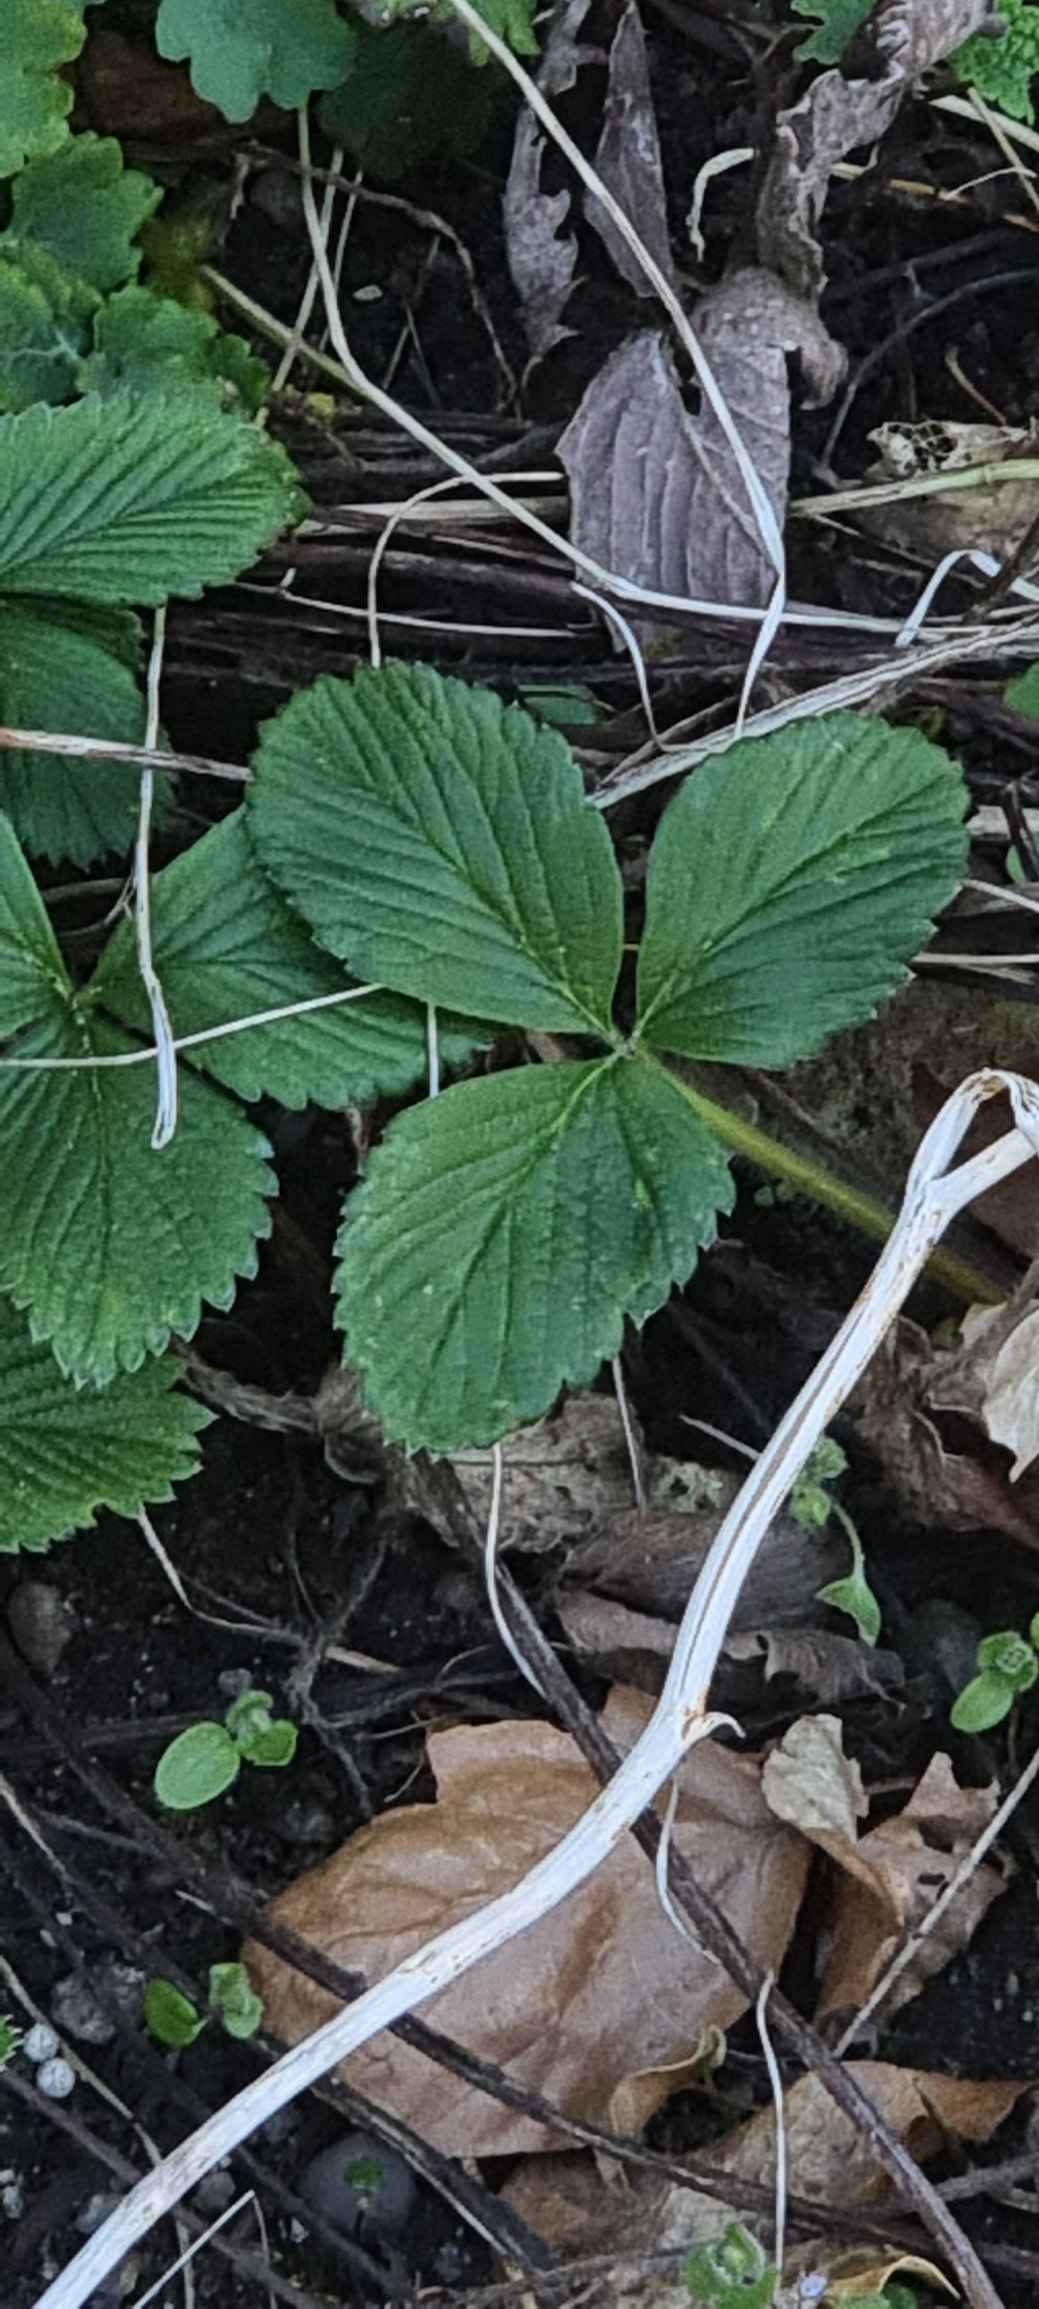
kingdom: Plantae
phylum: Tracheophyta
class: Magnoliopsida
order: Rosales
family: Rosaceae
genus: Fragaria
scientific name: Fragaria vesca
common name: Skov-jordbær
